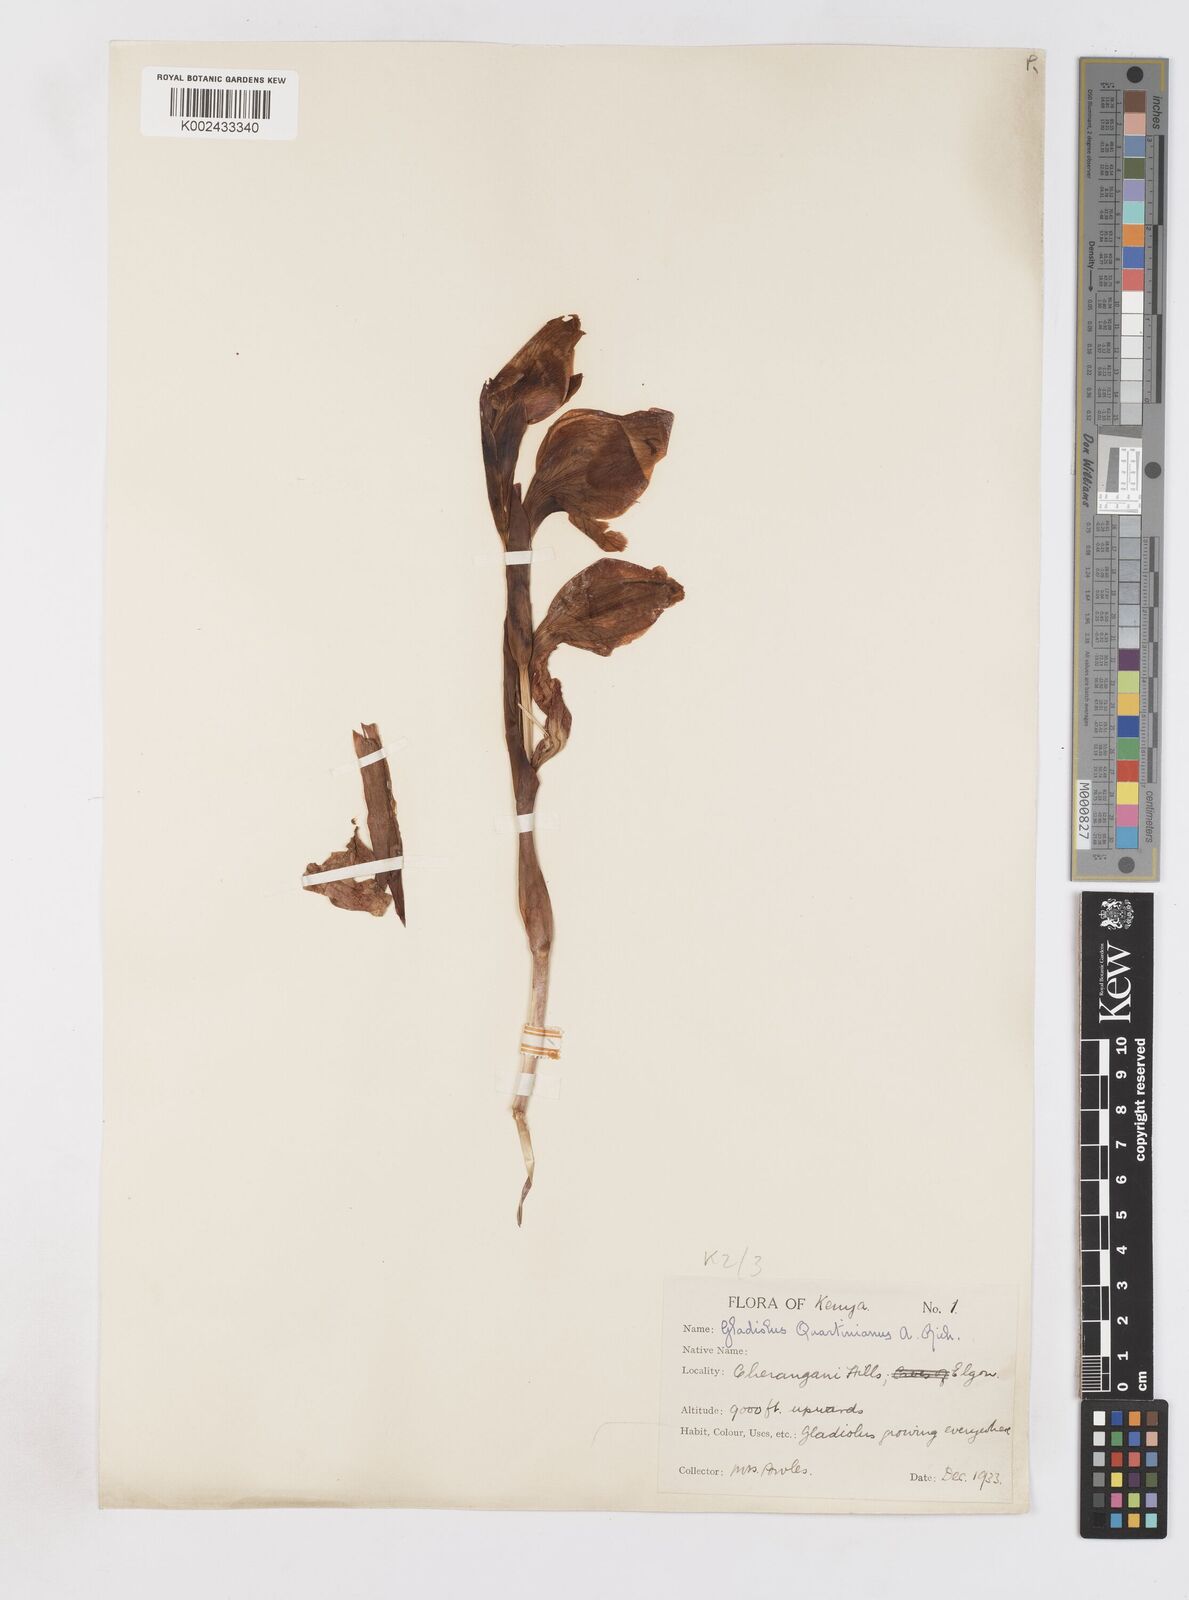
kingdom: Plantae
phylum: Tracheophyta
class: Liliopsida
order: Asparagales
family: Iridaceae
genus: Gladiolus
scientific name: Gladiolus dalenii
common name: Cornflag
